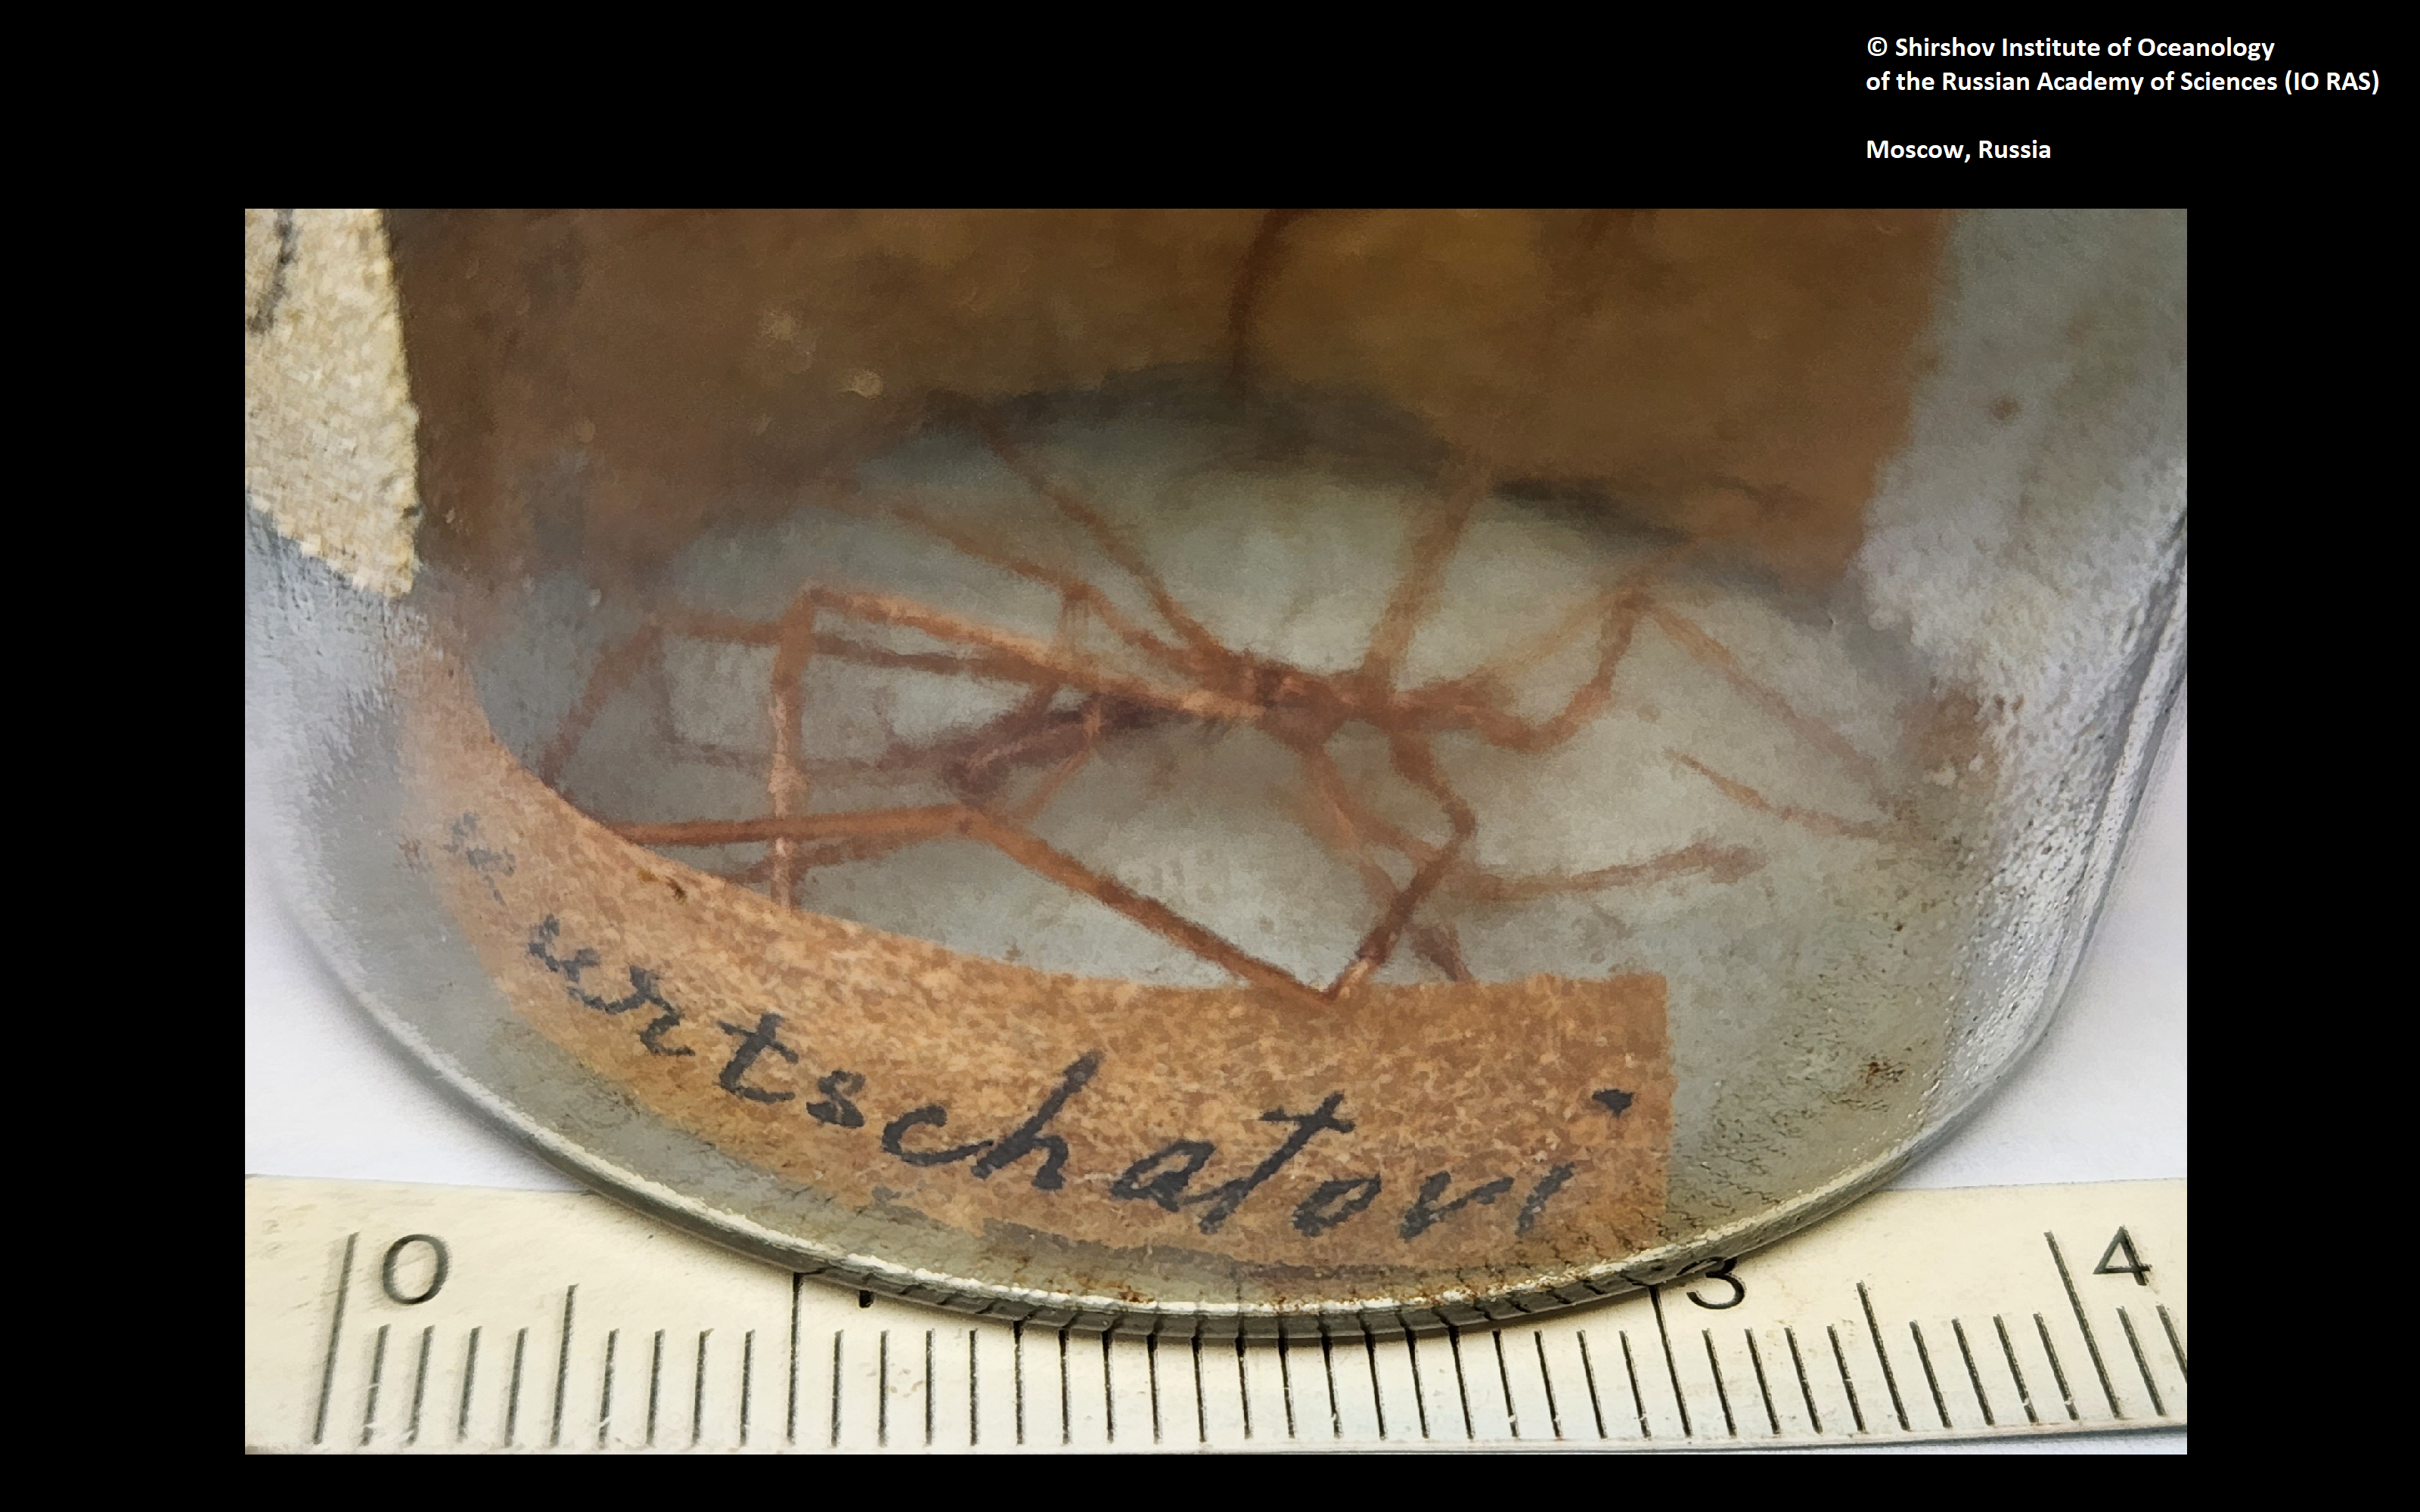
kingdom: Animalia
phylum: Arthropoda
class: Pycnogonida
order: Pantopoda
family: Colossendeidae
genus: Colossendeis
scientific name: Colossendeis kurtchatovi
